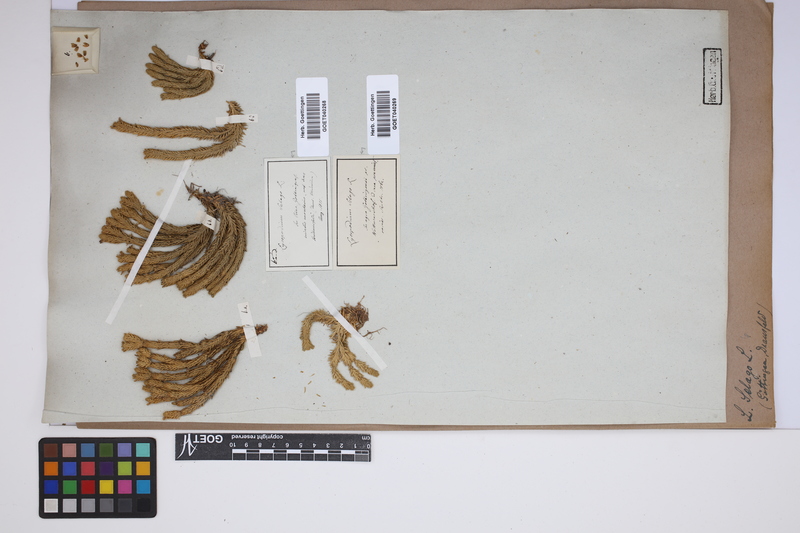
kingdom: Plantae
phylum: Tracheophyta
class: Lycopodiopsida
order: Lycopodiales
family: Lycopodiaceae
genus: Huperzia
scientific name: Huperzia selago
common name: Northern firmoss
